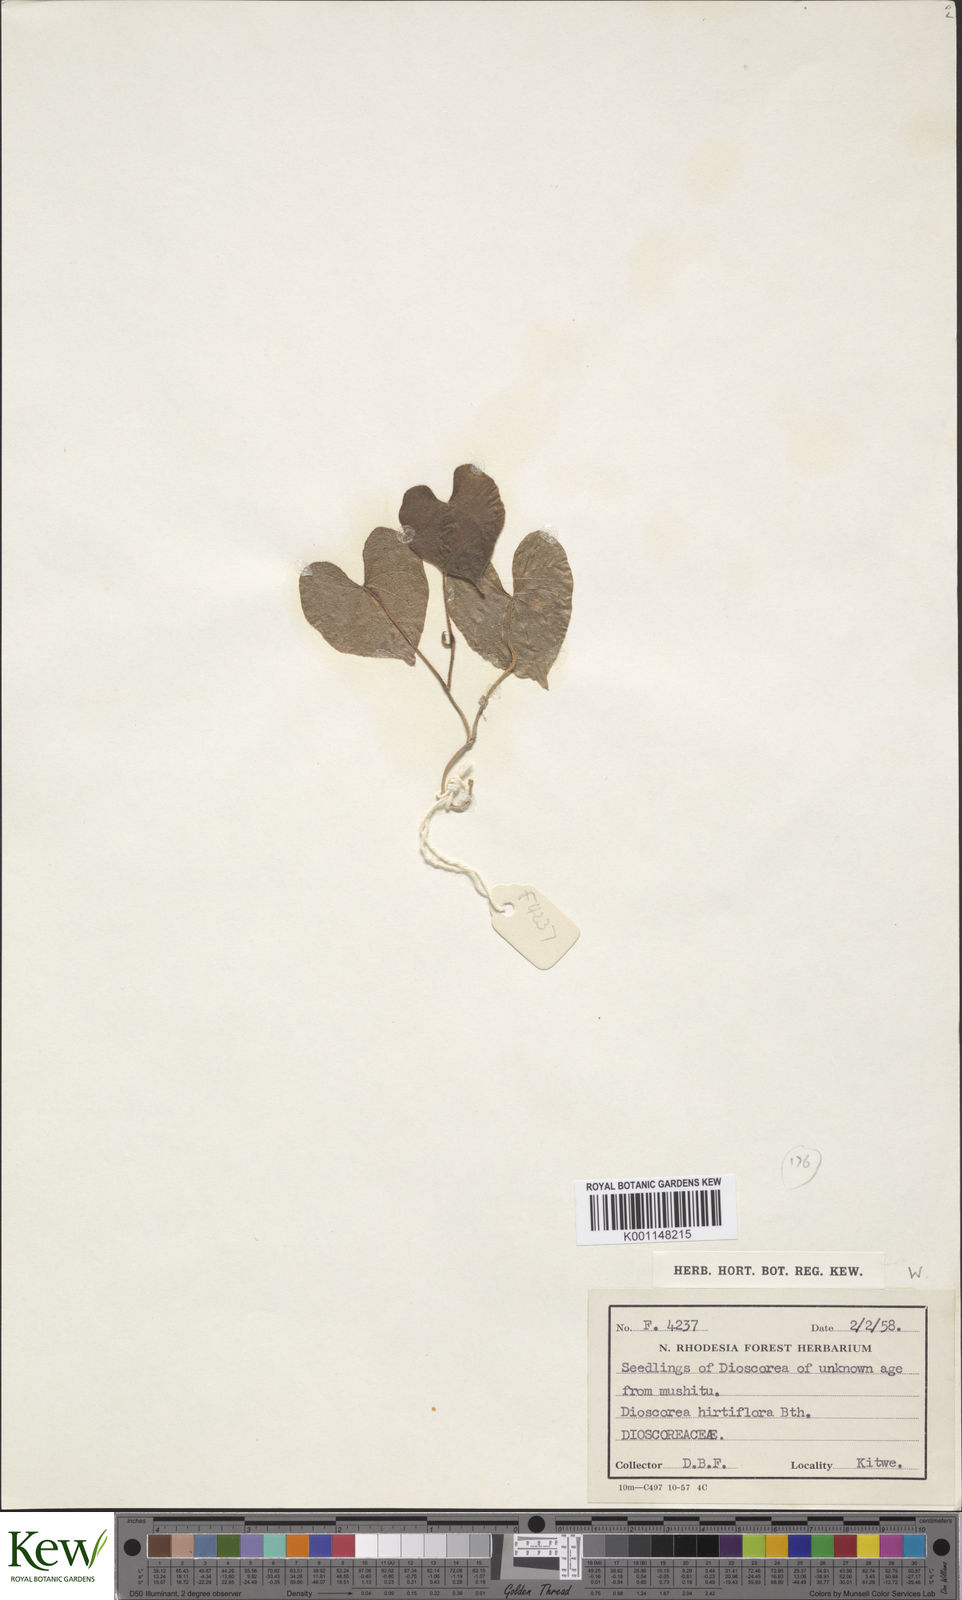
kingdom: Plantae
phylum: Tracheophyta
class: Liliopsida
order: Dioscoreales
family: Dioscoreaceae
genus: Dioscorea
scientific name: Dioscorea hirtiflora
